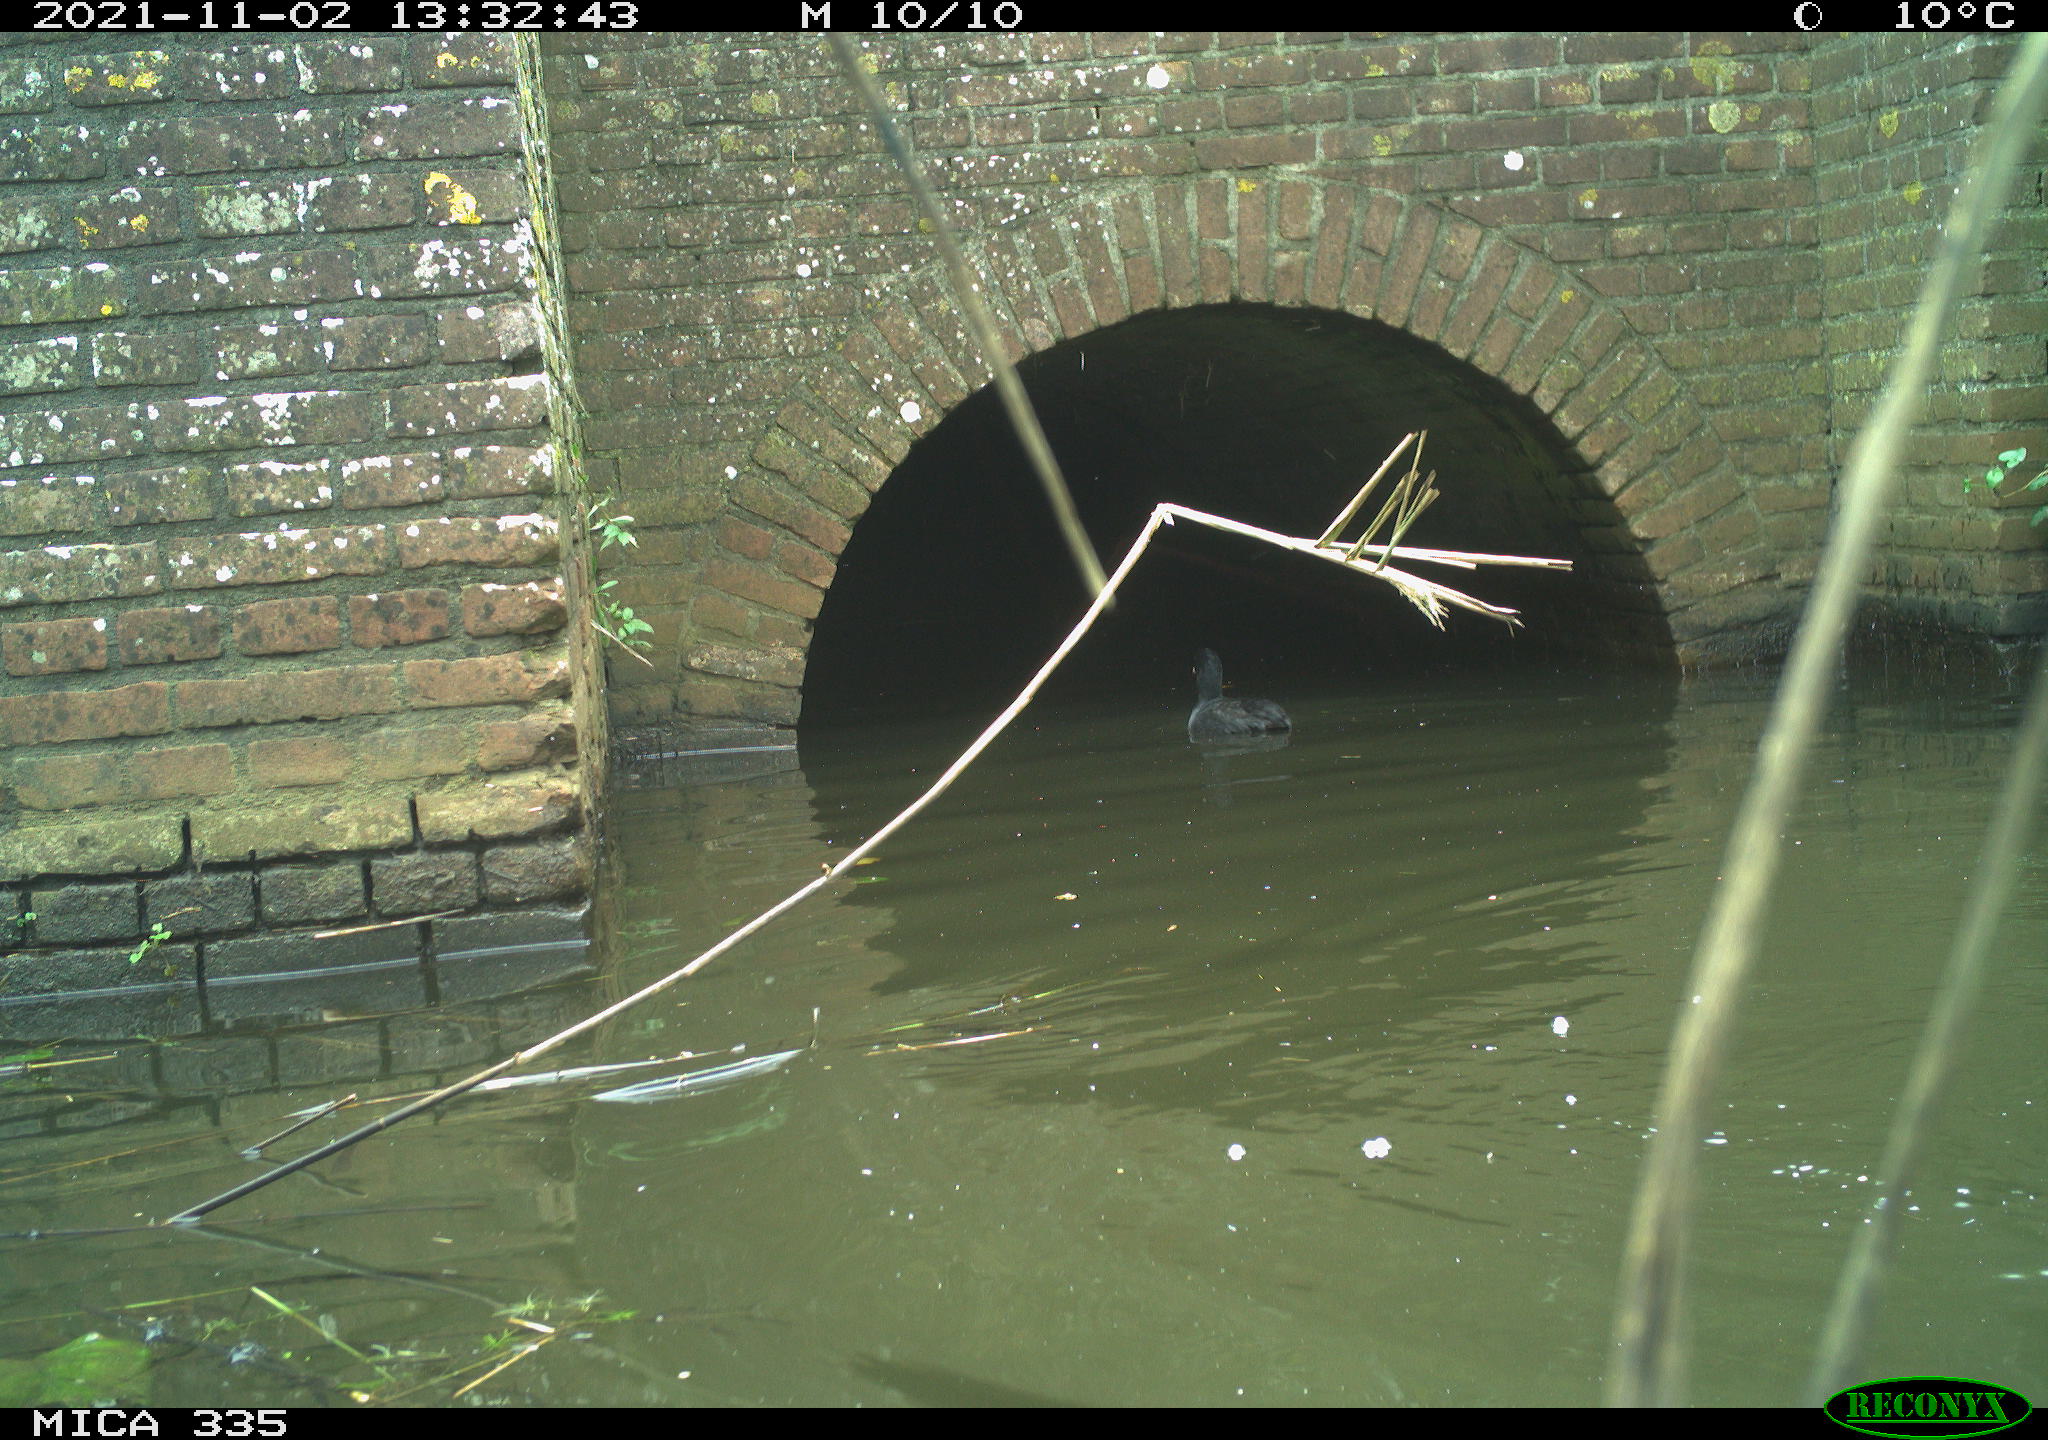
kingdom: Animalia
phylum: Chordata
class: Aves
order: Gruiformes
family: Rallidae
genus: Fulica
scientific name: Fulica atra
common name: Eurasian coot
